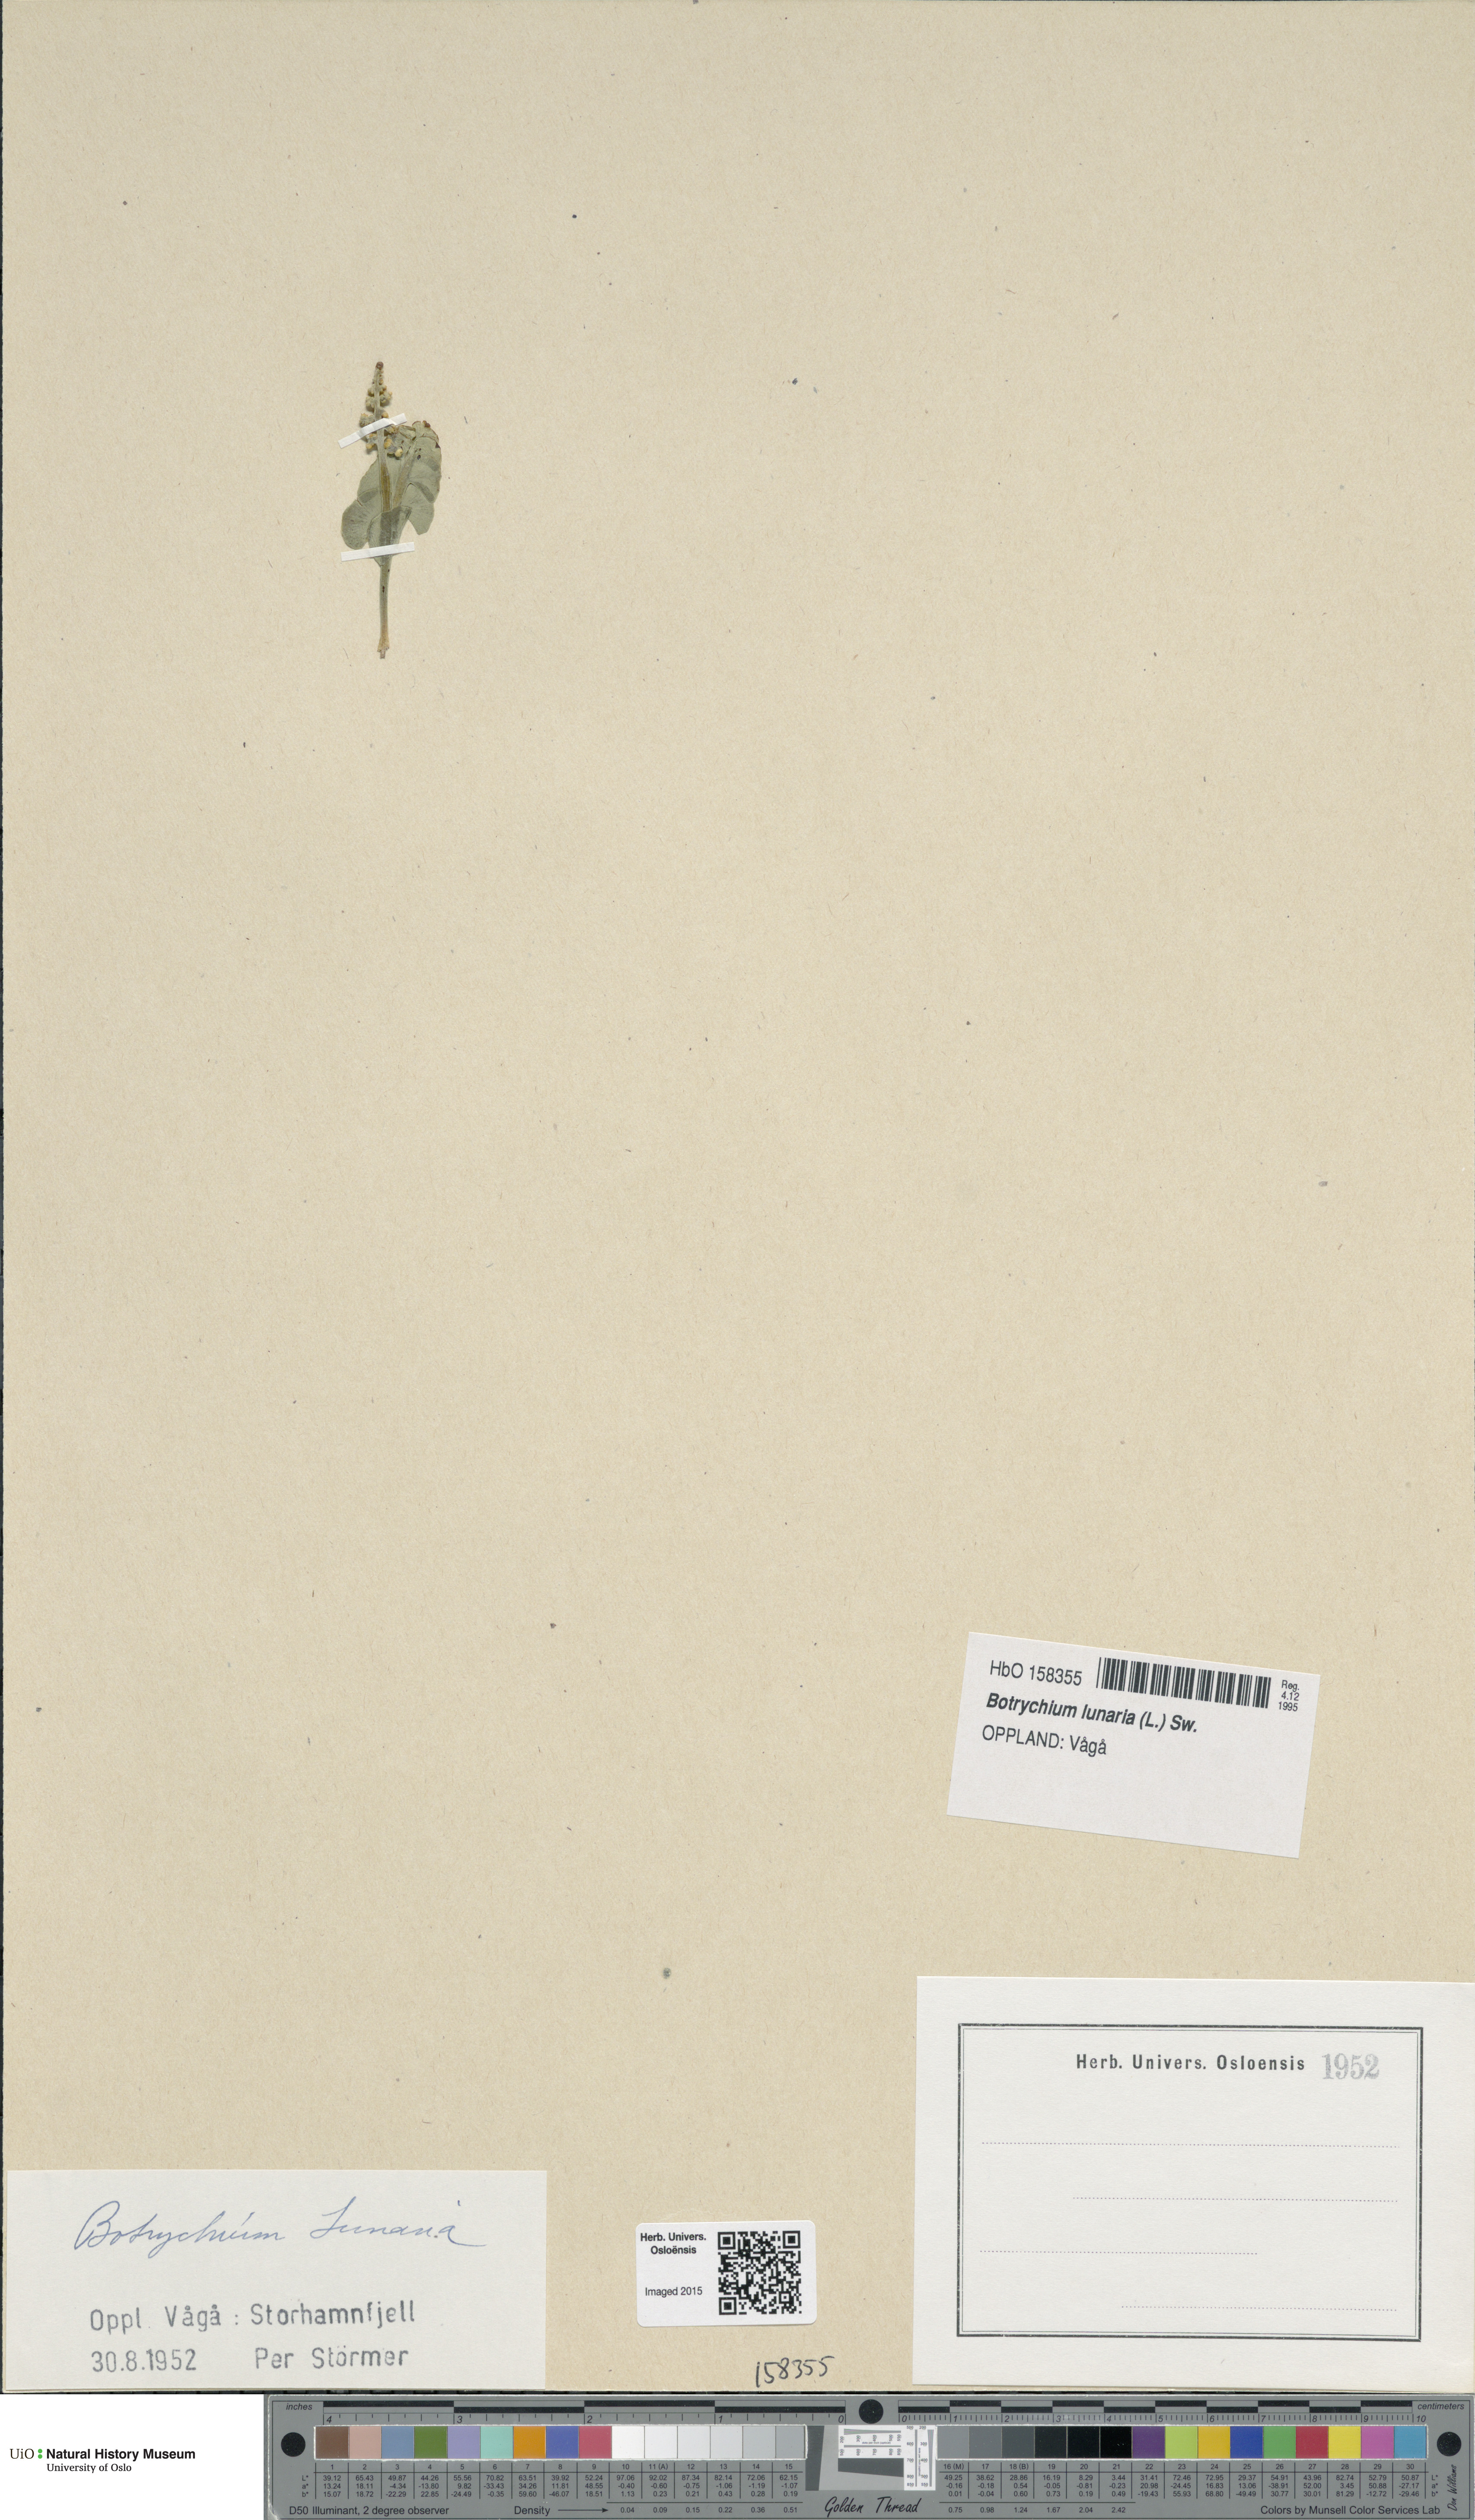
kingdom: Plantae
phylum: Tracheophyta
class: Polypodiopsida
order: Ophioglossales
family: Ophioglossaceae
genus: Botrychium
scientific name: Botrychium lunaria
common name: Moonwort
